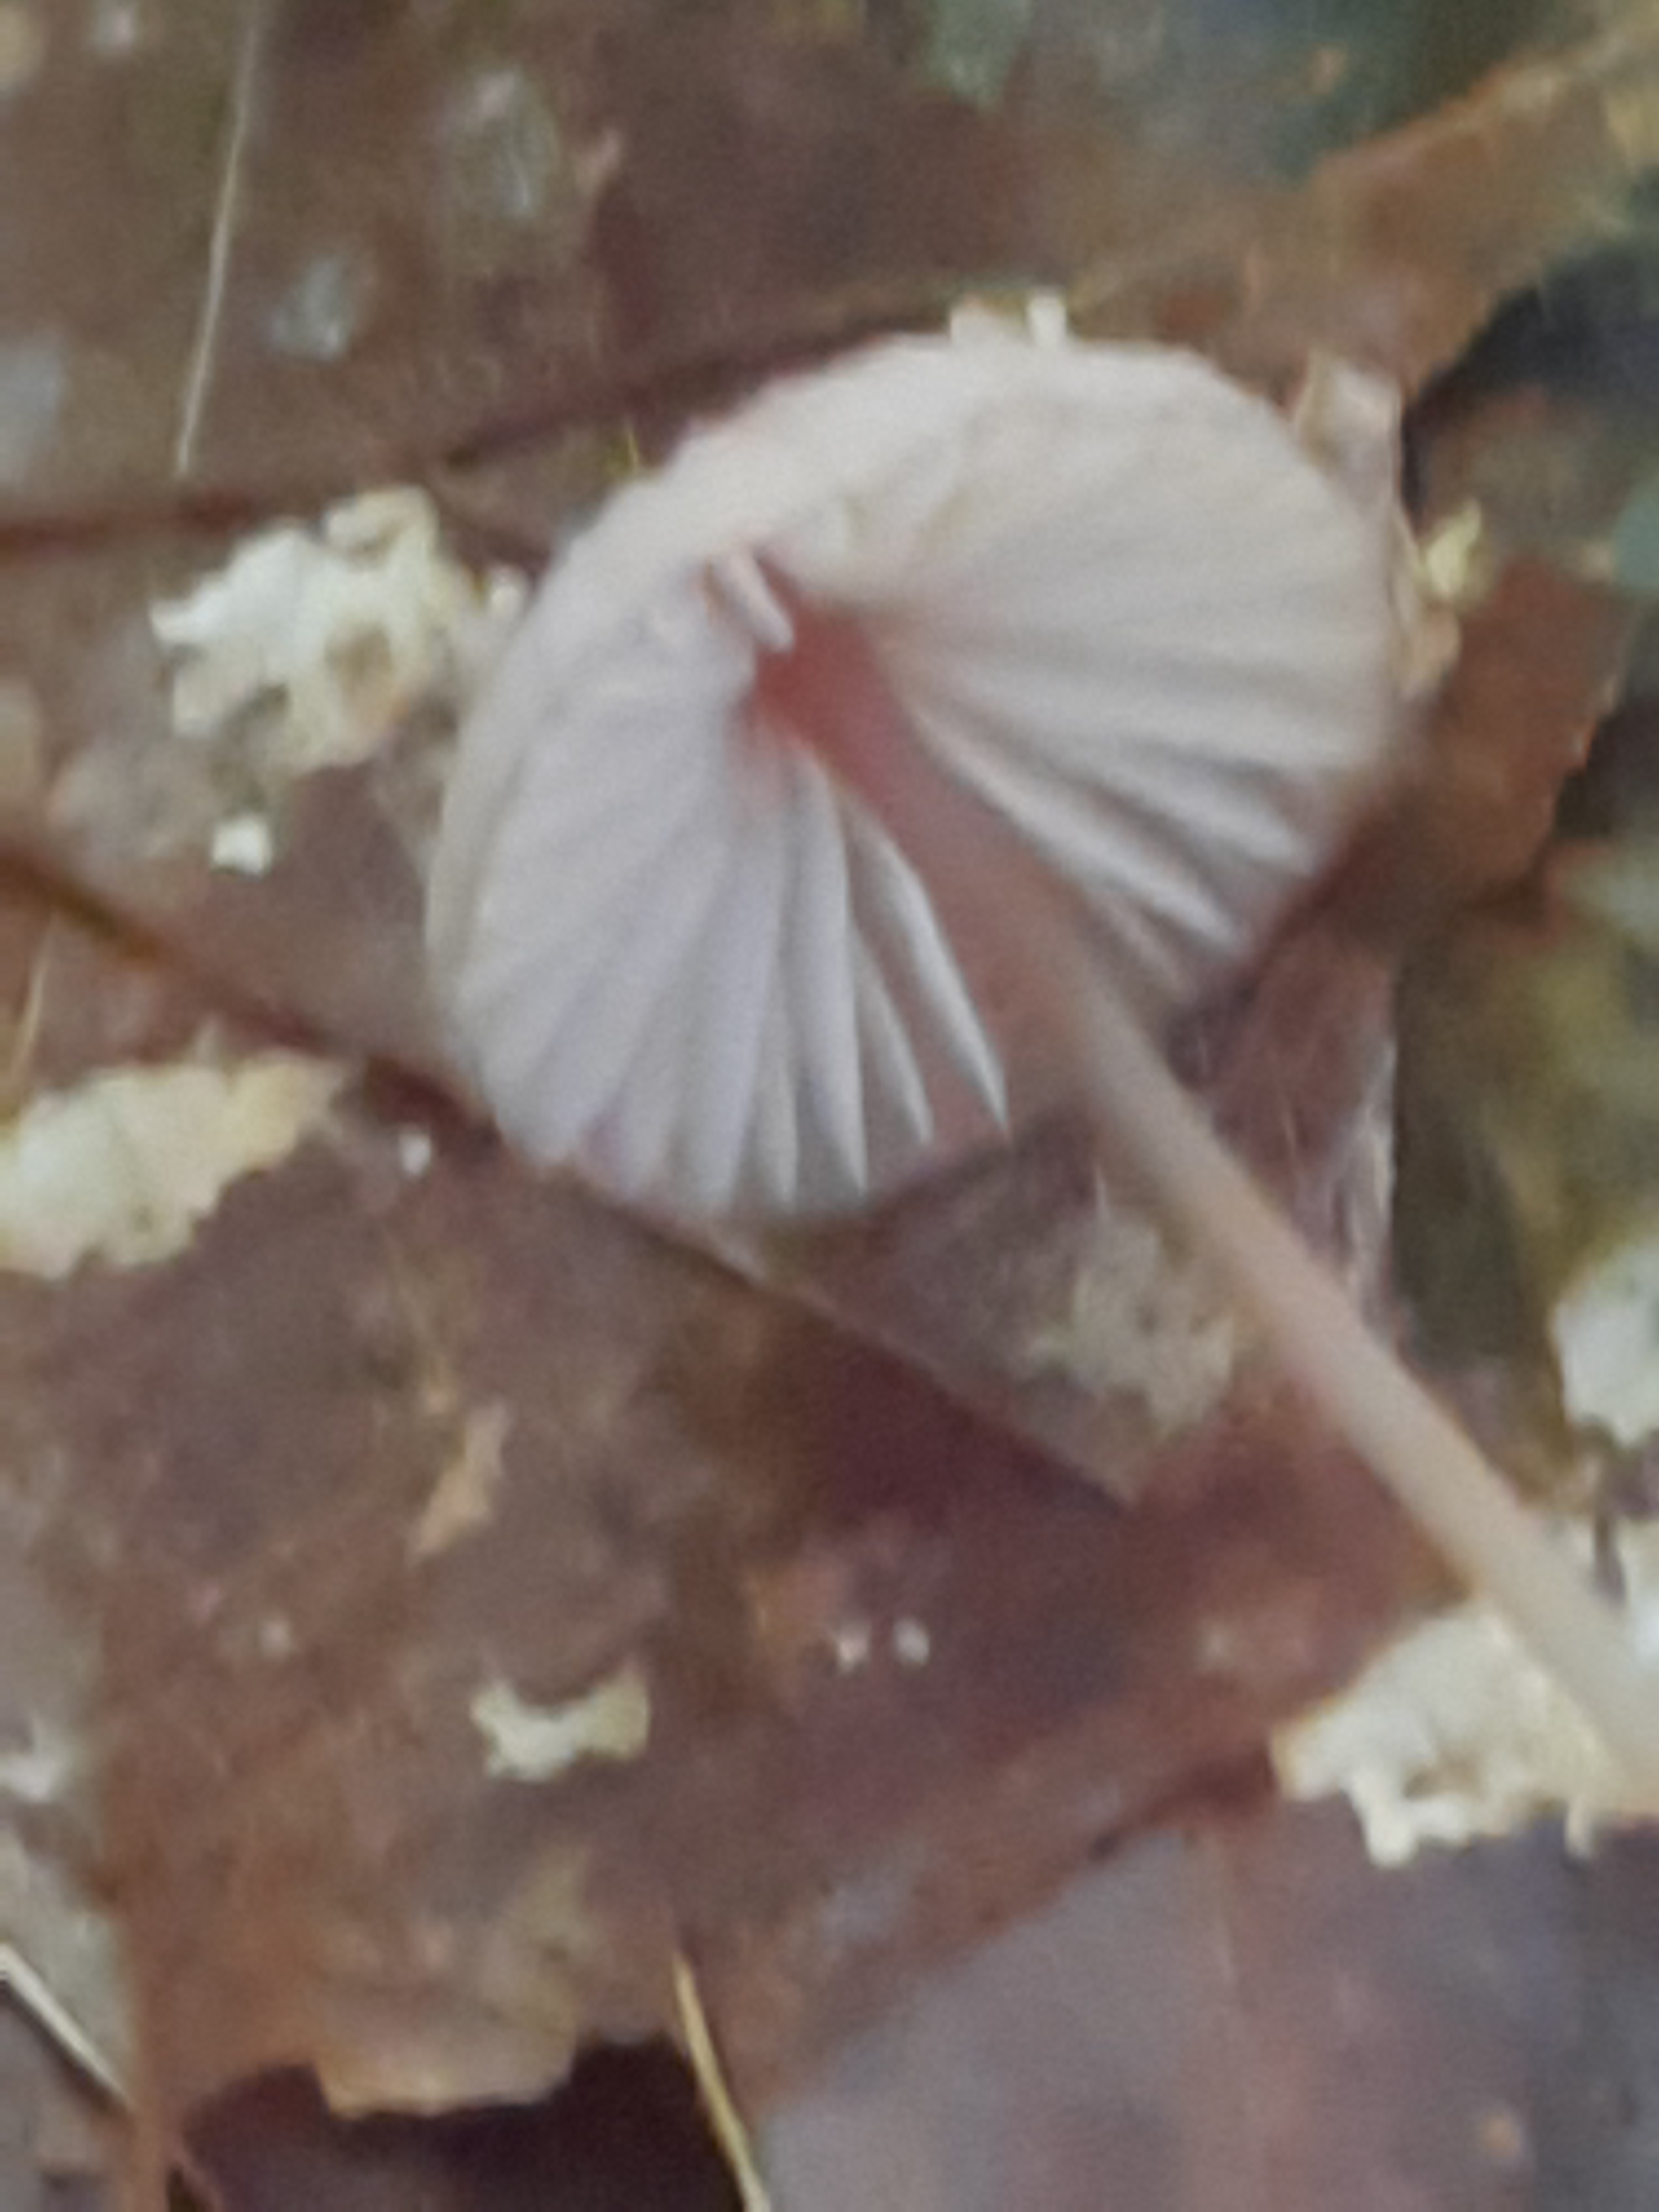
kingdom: Fungi
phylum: Basidiomycota
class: Agaricomycetes
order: Agaricales
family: Mycenaceae
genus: Mycena
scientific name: Mycena sanguinolenta
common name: rødmælket huesvamp
